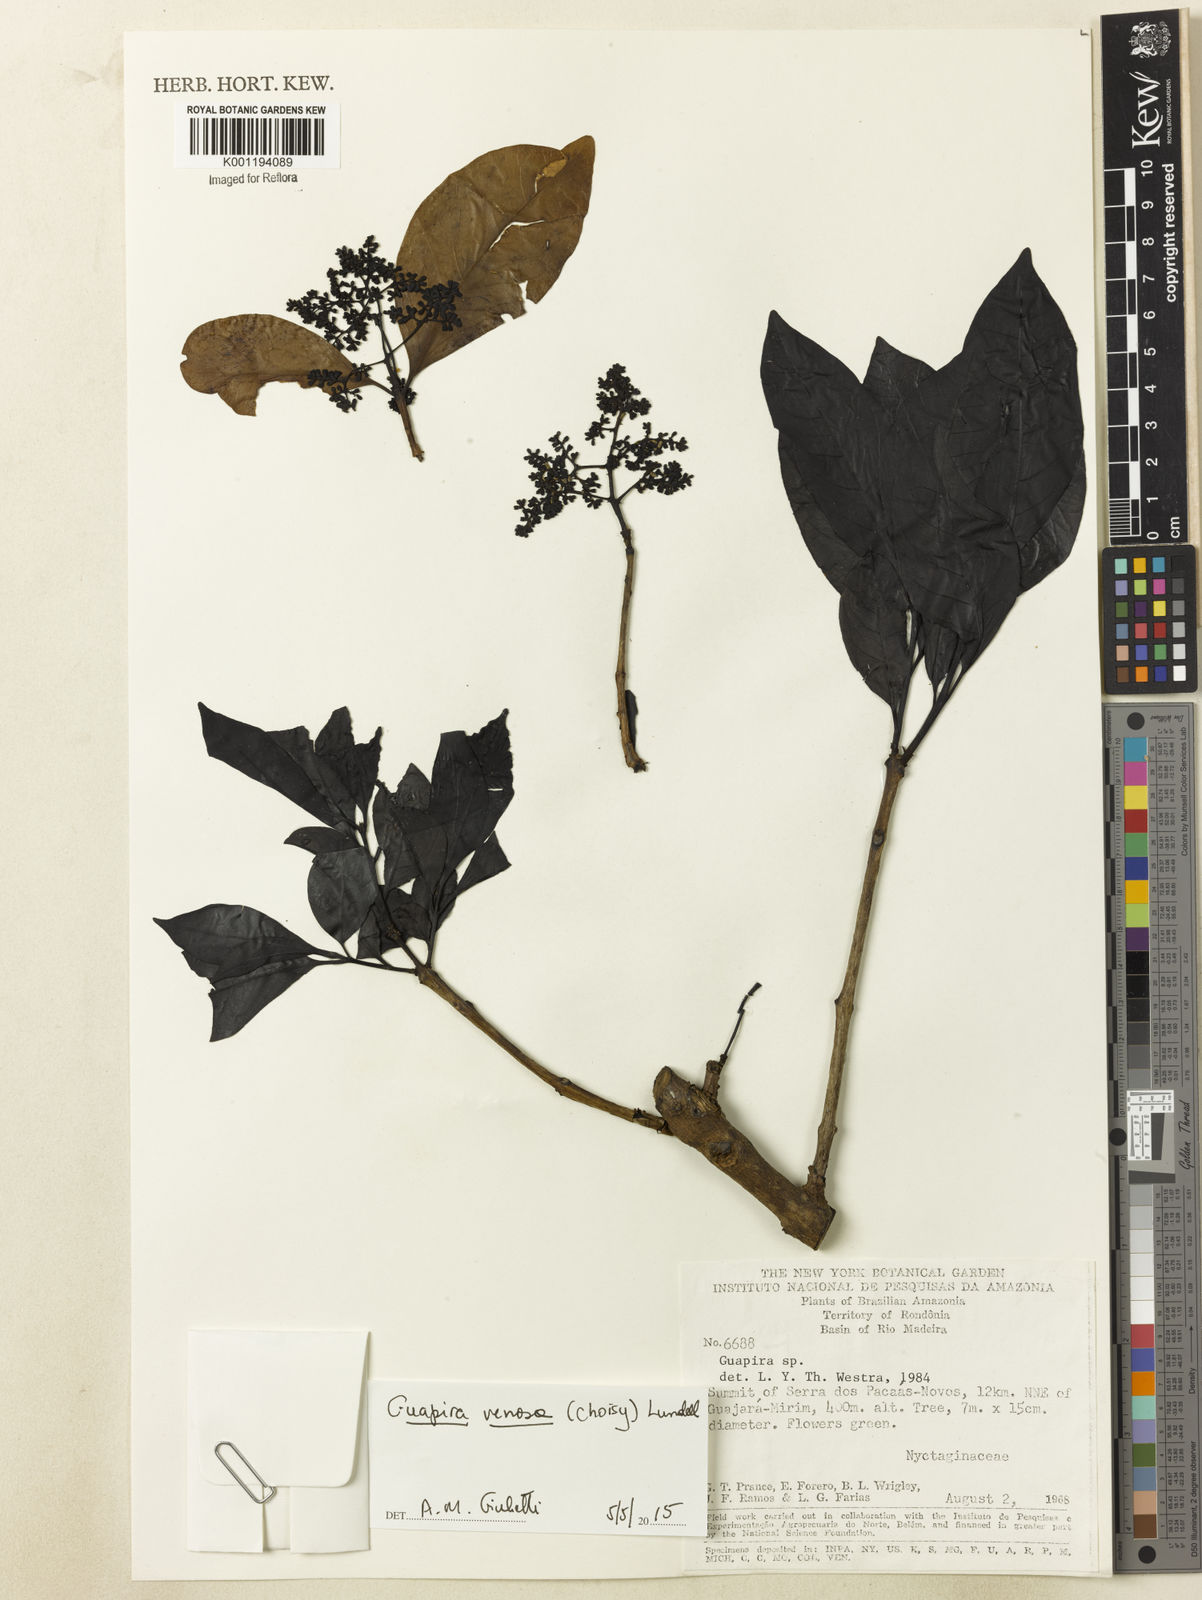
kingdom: Plantae
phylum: Tracheophyta
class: Magnoliopsida
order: Caryophyllales
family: Nyctaginaceae
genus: Guapira
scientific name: Guapira venosa
